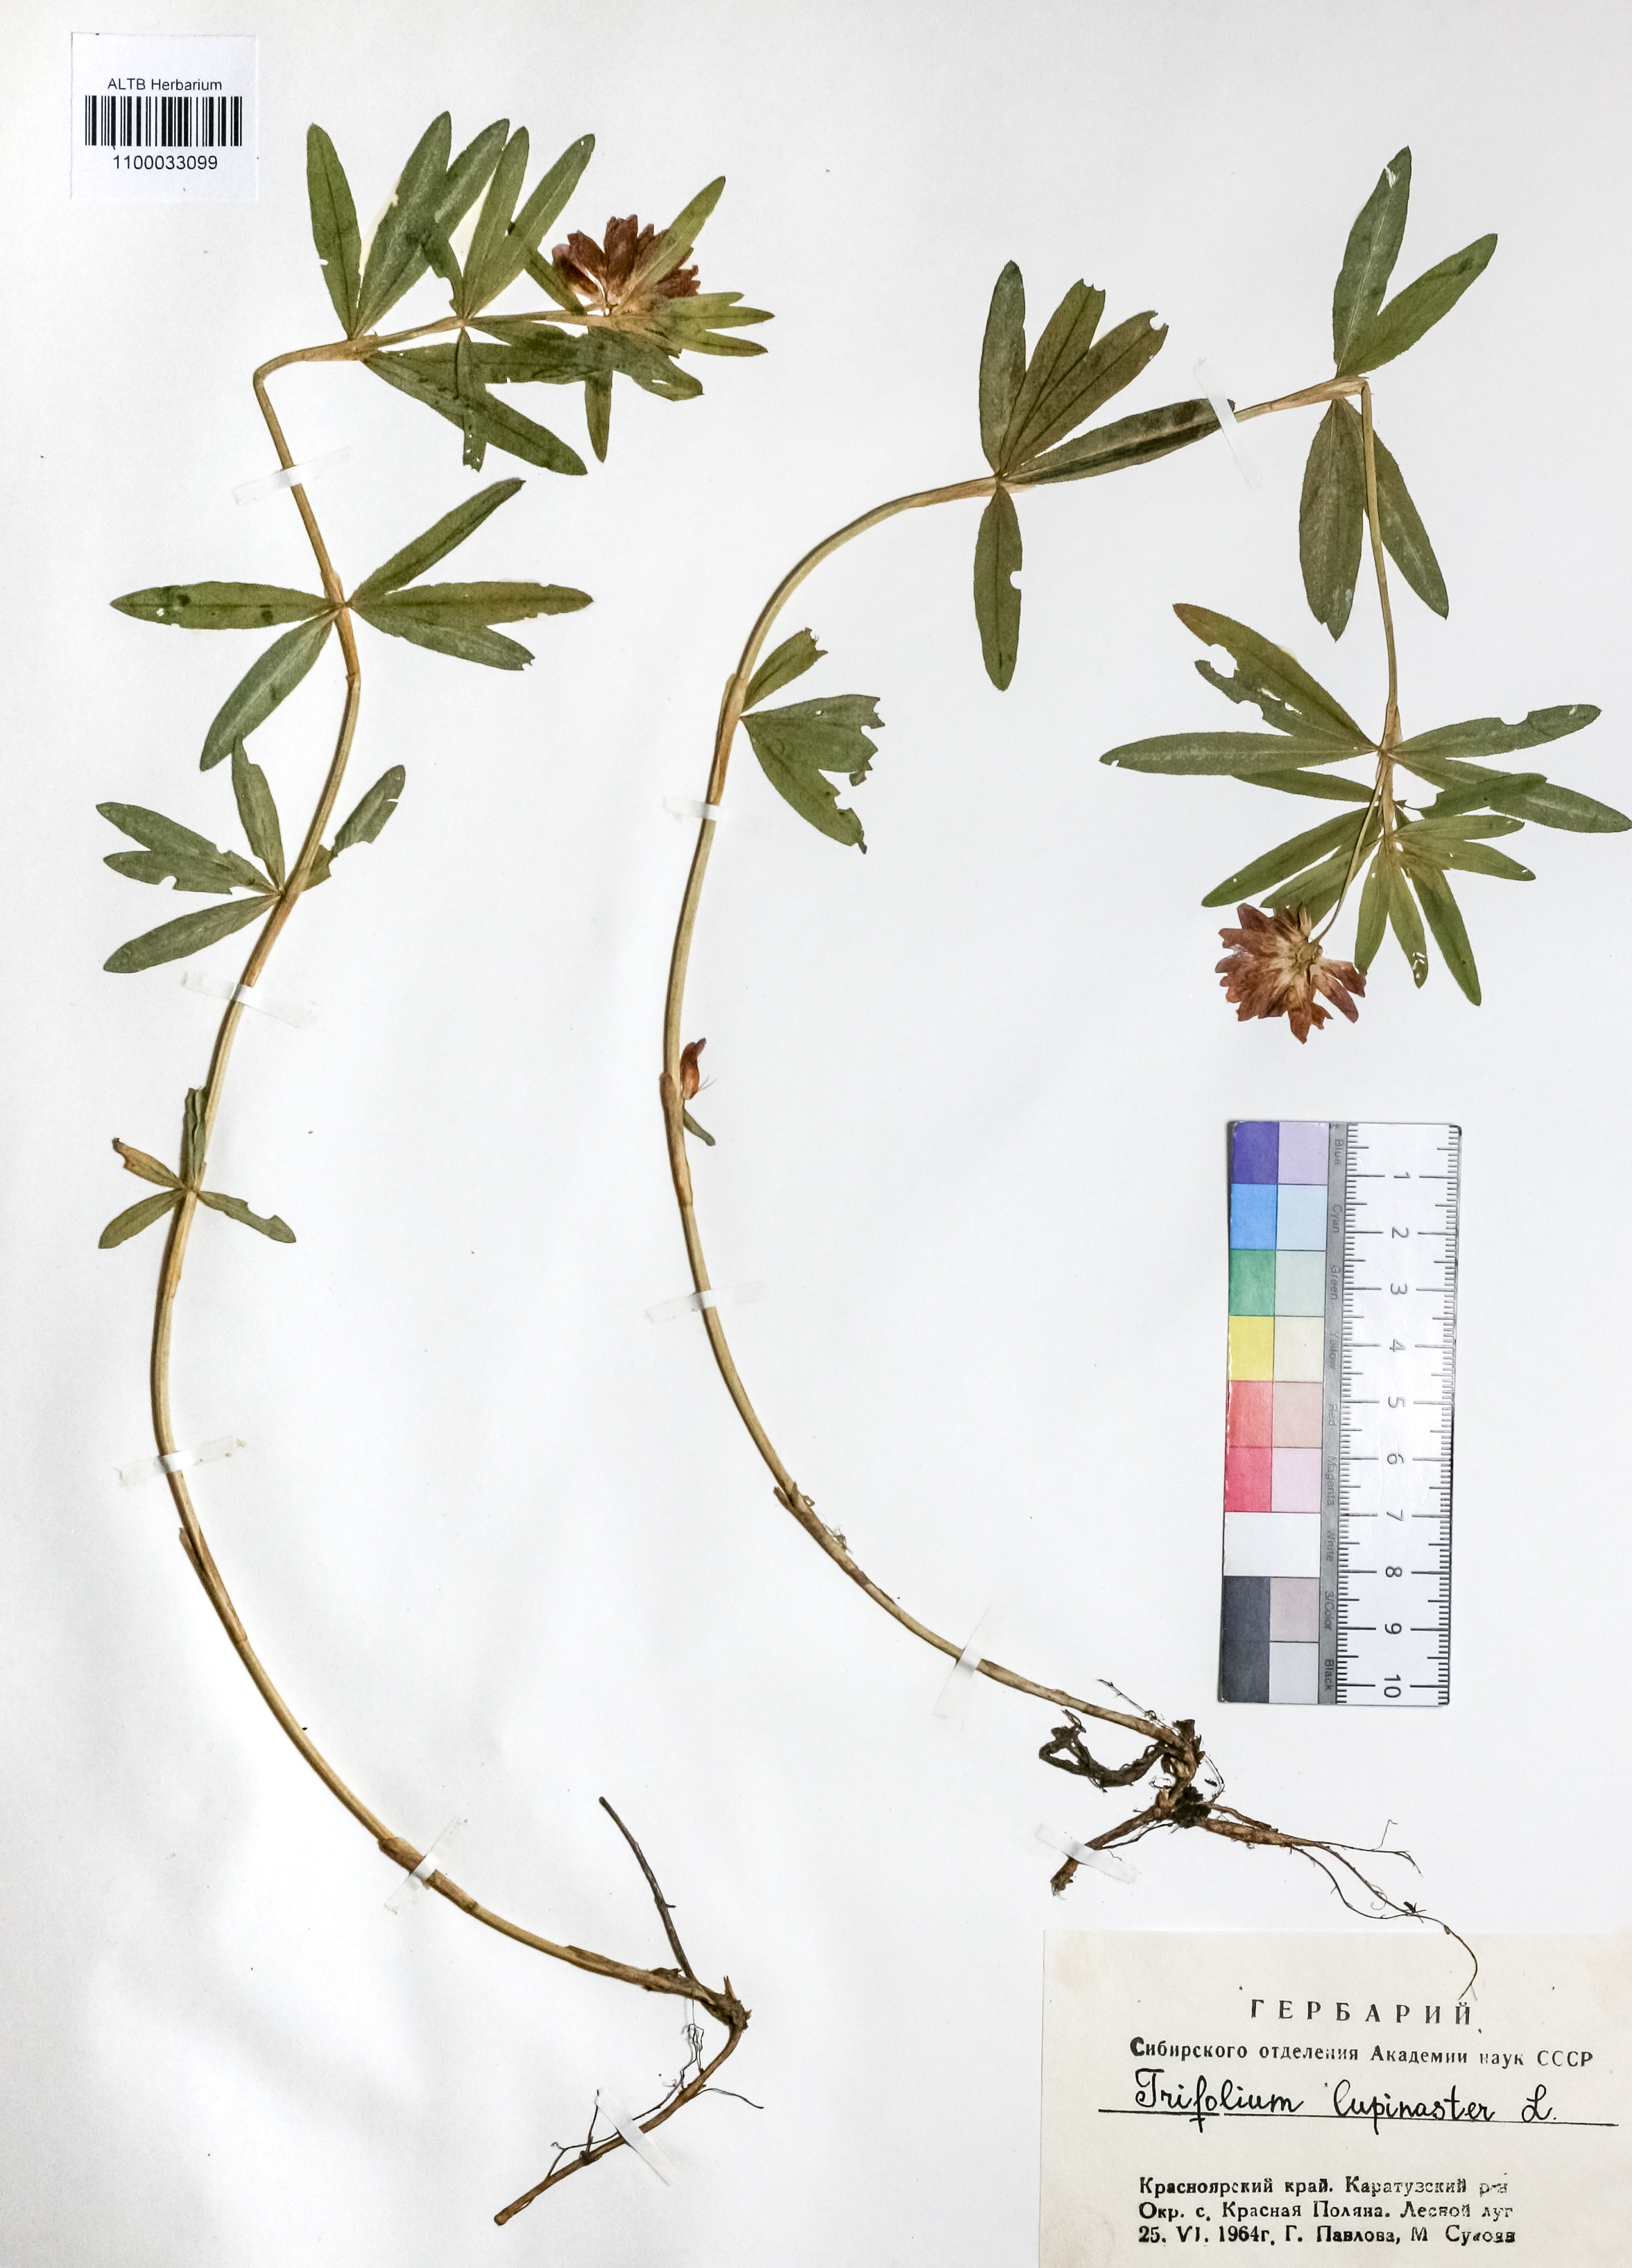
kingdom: Plantae
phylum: Tracheophyta
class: Magnoliopsida
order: Fabales
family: Fabaceae
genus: Trifolium
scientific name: Trifolium lupinaster
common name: Lupine clover
